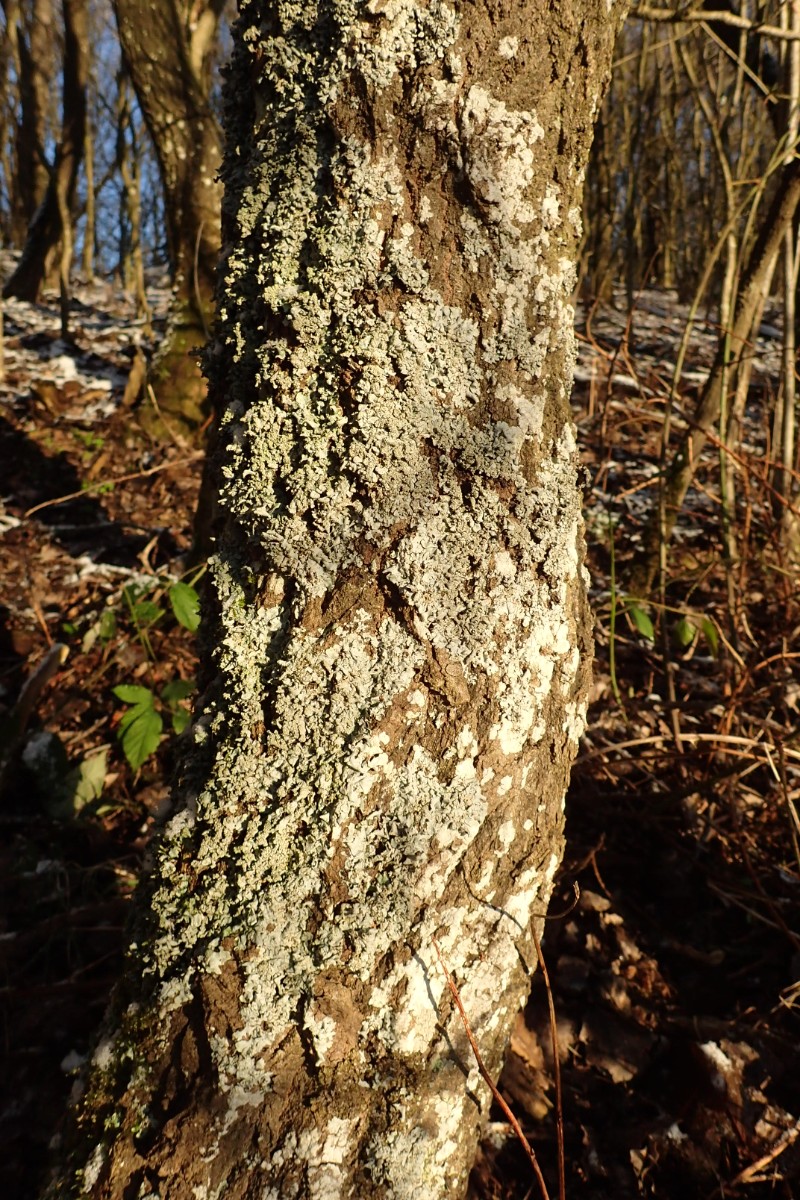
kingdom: Fungi
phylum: Ascomycota
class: Lecanoromycetes
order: Lecanorales
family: Parmeliaceae
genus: Hypotrachyna
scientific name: Hypotrachyna afrorevoluta
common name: kyst-skållav
